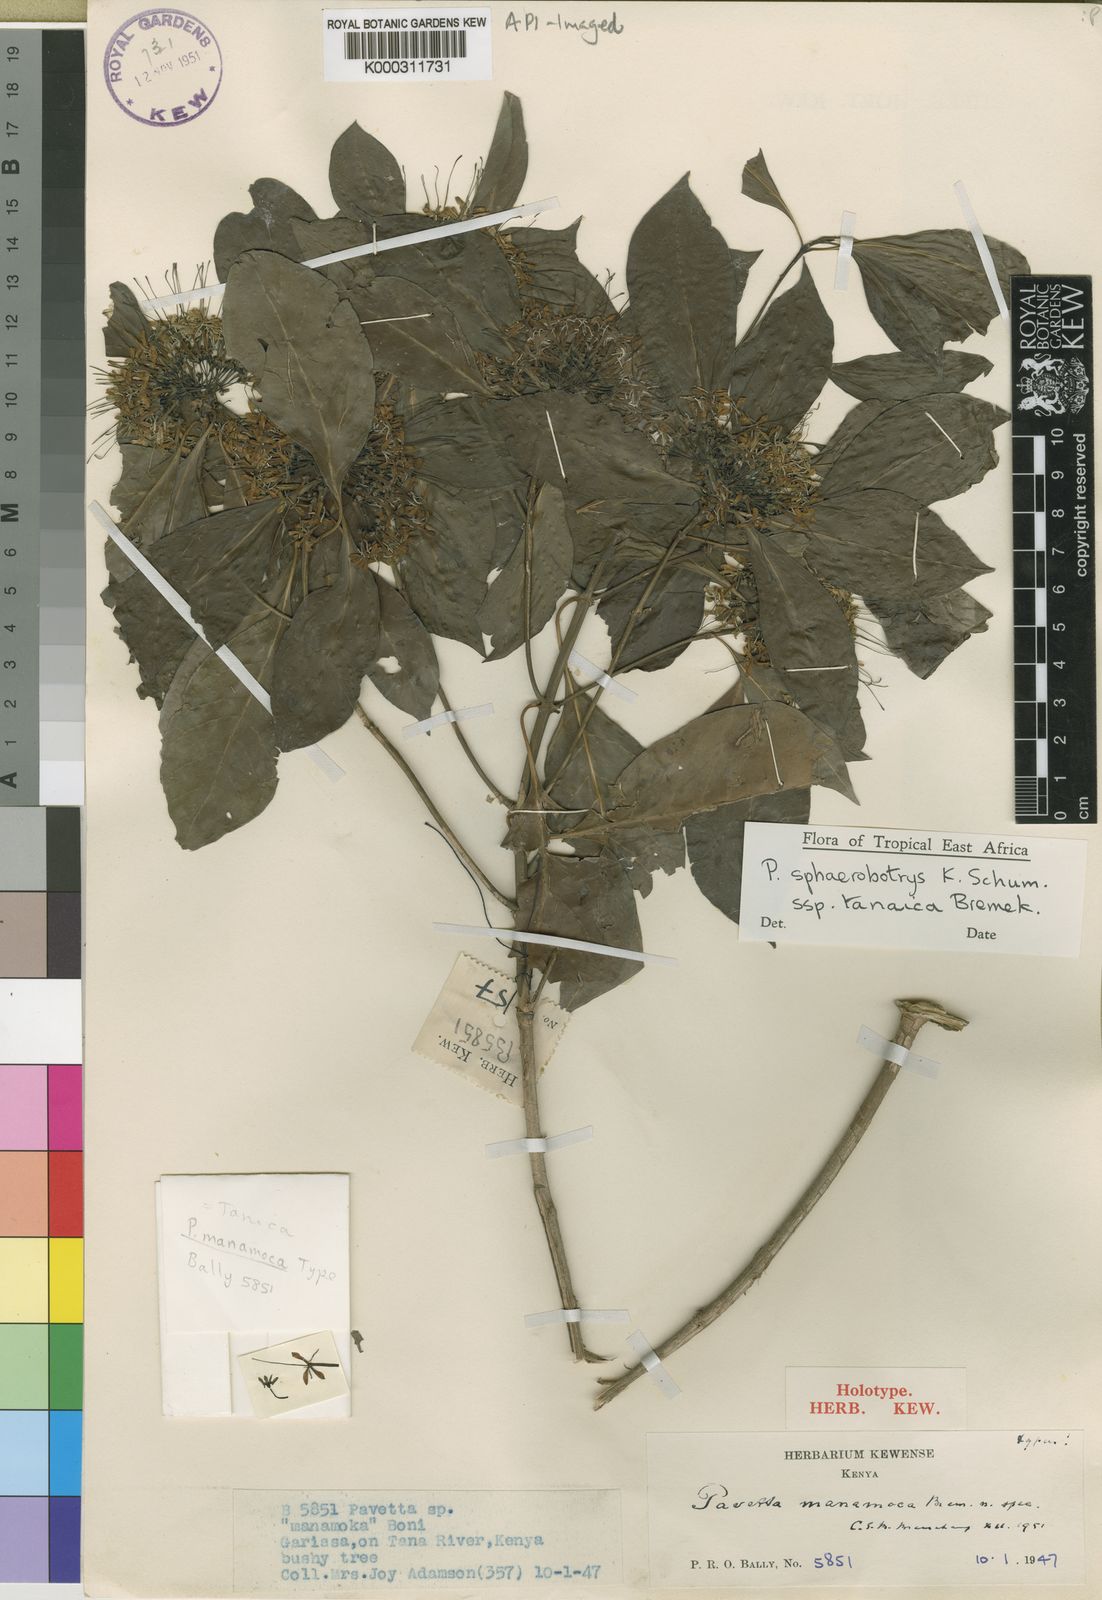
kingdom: Plantae
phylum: Tracheophyta
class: Magnoliopsida
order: Gentianales
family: Rubiaceae
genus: Pavetta
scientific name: Pavetta sphaerobotrys
